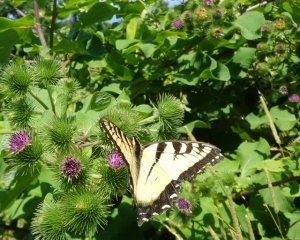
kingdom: Animalia
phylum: Arthropoda
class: Insecta
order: Lepidoptera
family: Papilionidae
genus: Pterourus
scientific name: Pterourus
